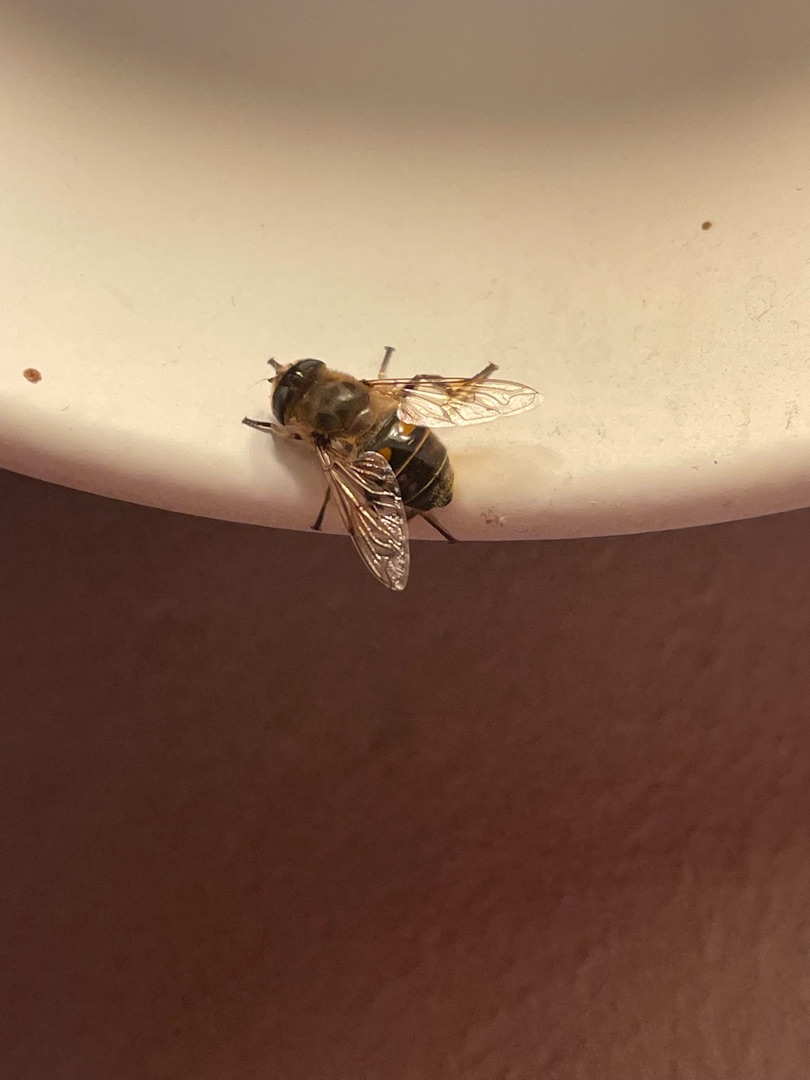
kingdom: Animalia
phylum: Arthropoda
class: Insecta
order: Diptera
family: Syrphidae
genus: Eristalis
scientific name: Eristalis tenax
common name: Droneflue
